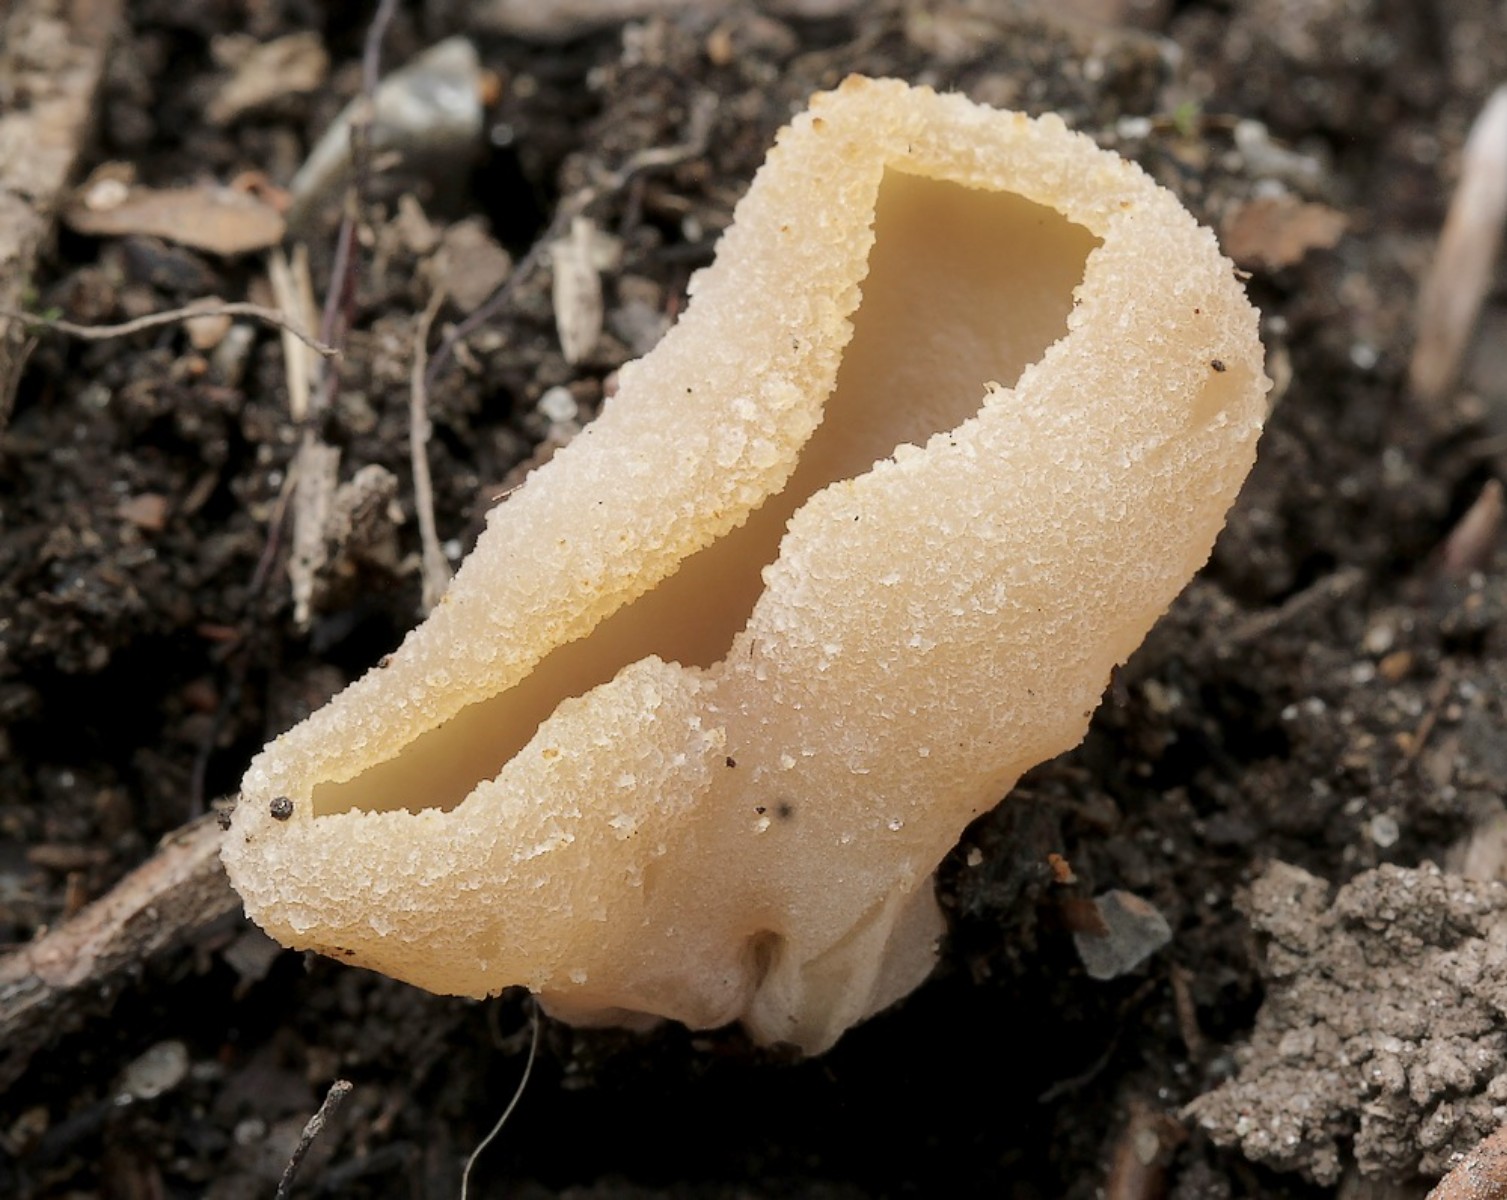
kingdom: Fungi
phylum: Ascomycota
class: Pezizomycetes
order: Pezizales
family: Pezizaceae
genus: Peziza
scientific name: Peziza
